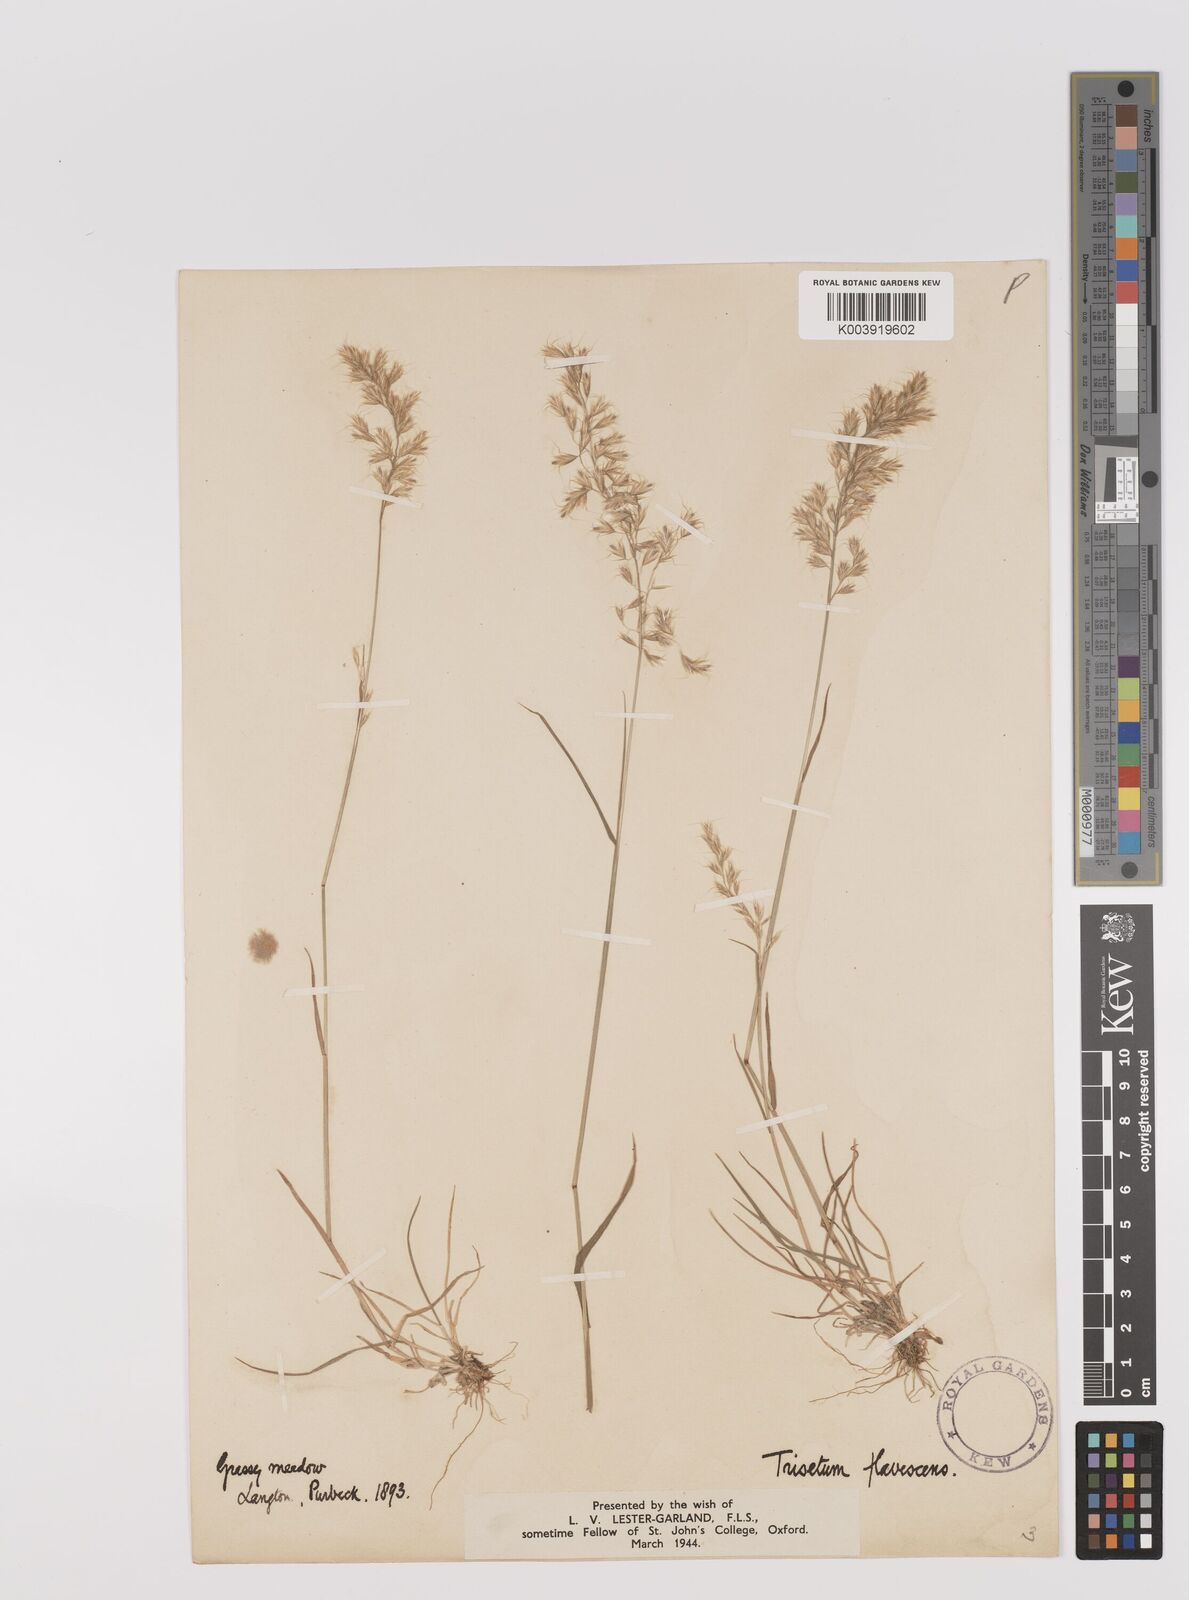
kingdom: Plantae
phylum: Tracheophyta
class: Liliopsida
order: Poales
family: Poaceae
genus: Trisetum
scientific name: Trisetum flavescens
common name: Yellow oat-grass
